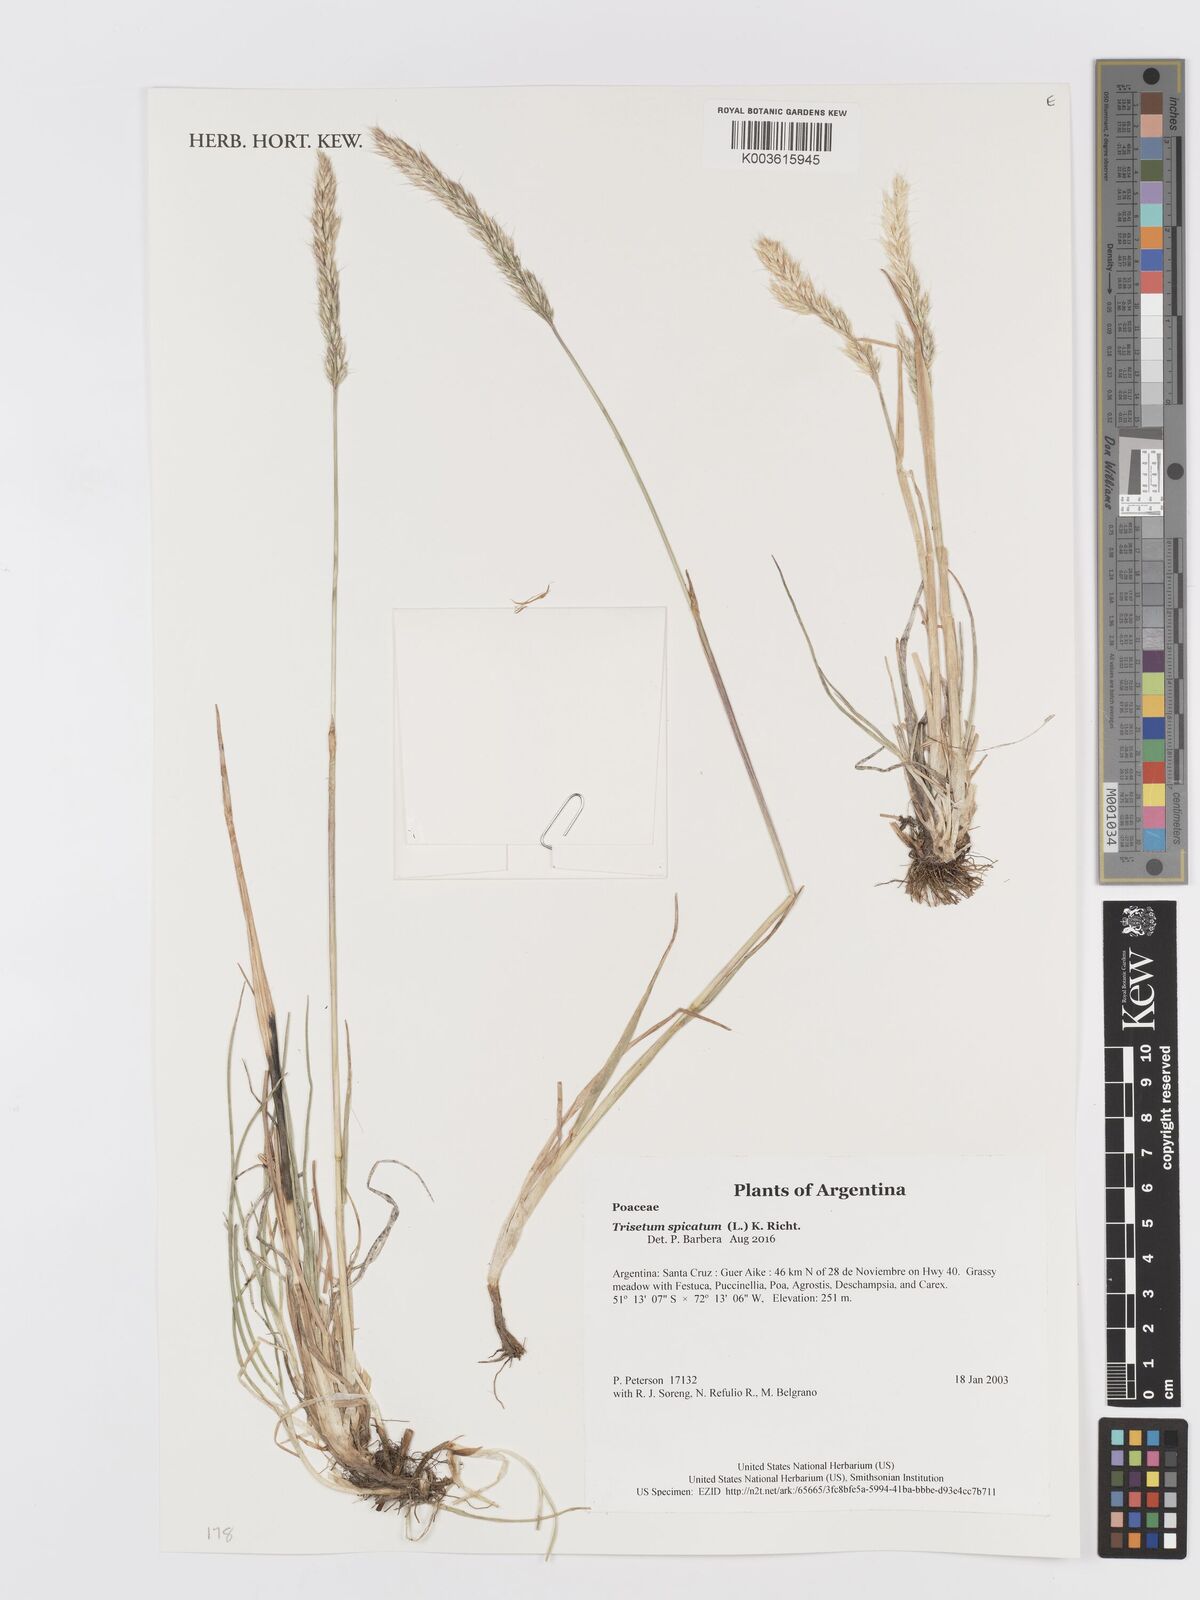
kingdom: Plantae
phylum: Tracheophyta
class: Liliopsida
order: Poales
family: Poaceae
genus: Koeleria
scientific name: Koeleria spicata
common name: Mountain trisetum
